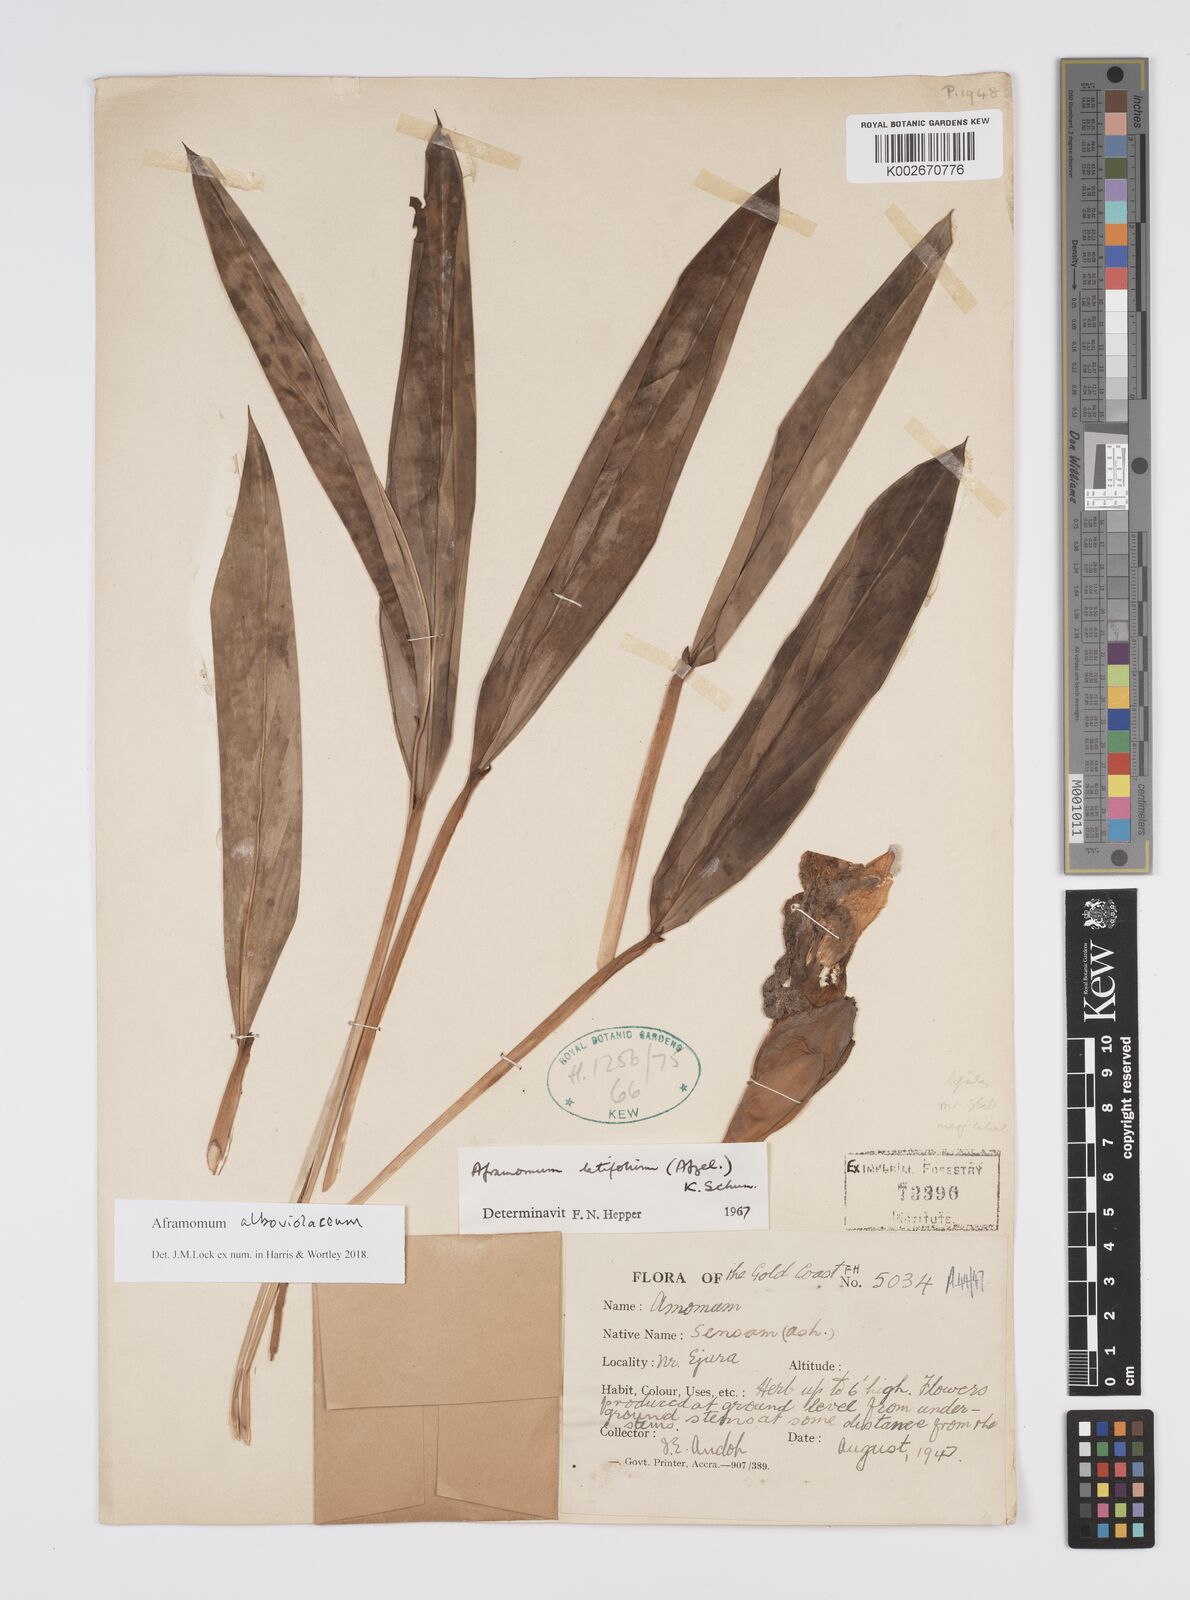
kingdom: Plantae
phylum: Tracheophyta
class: Liliopsida
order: Zingiberales
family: Zingiberaceae
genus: Aframomum
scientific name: Aframomum alboviolaceum
